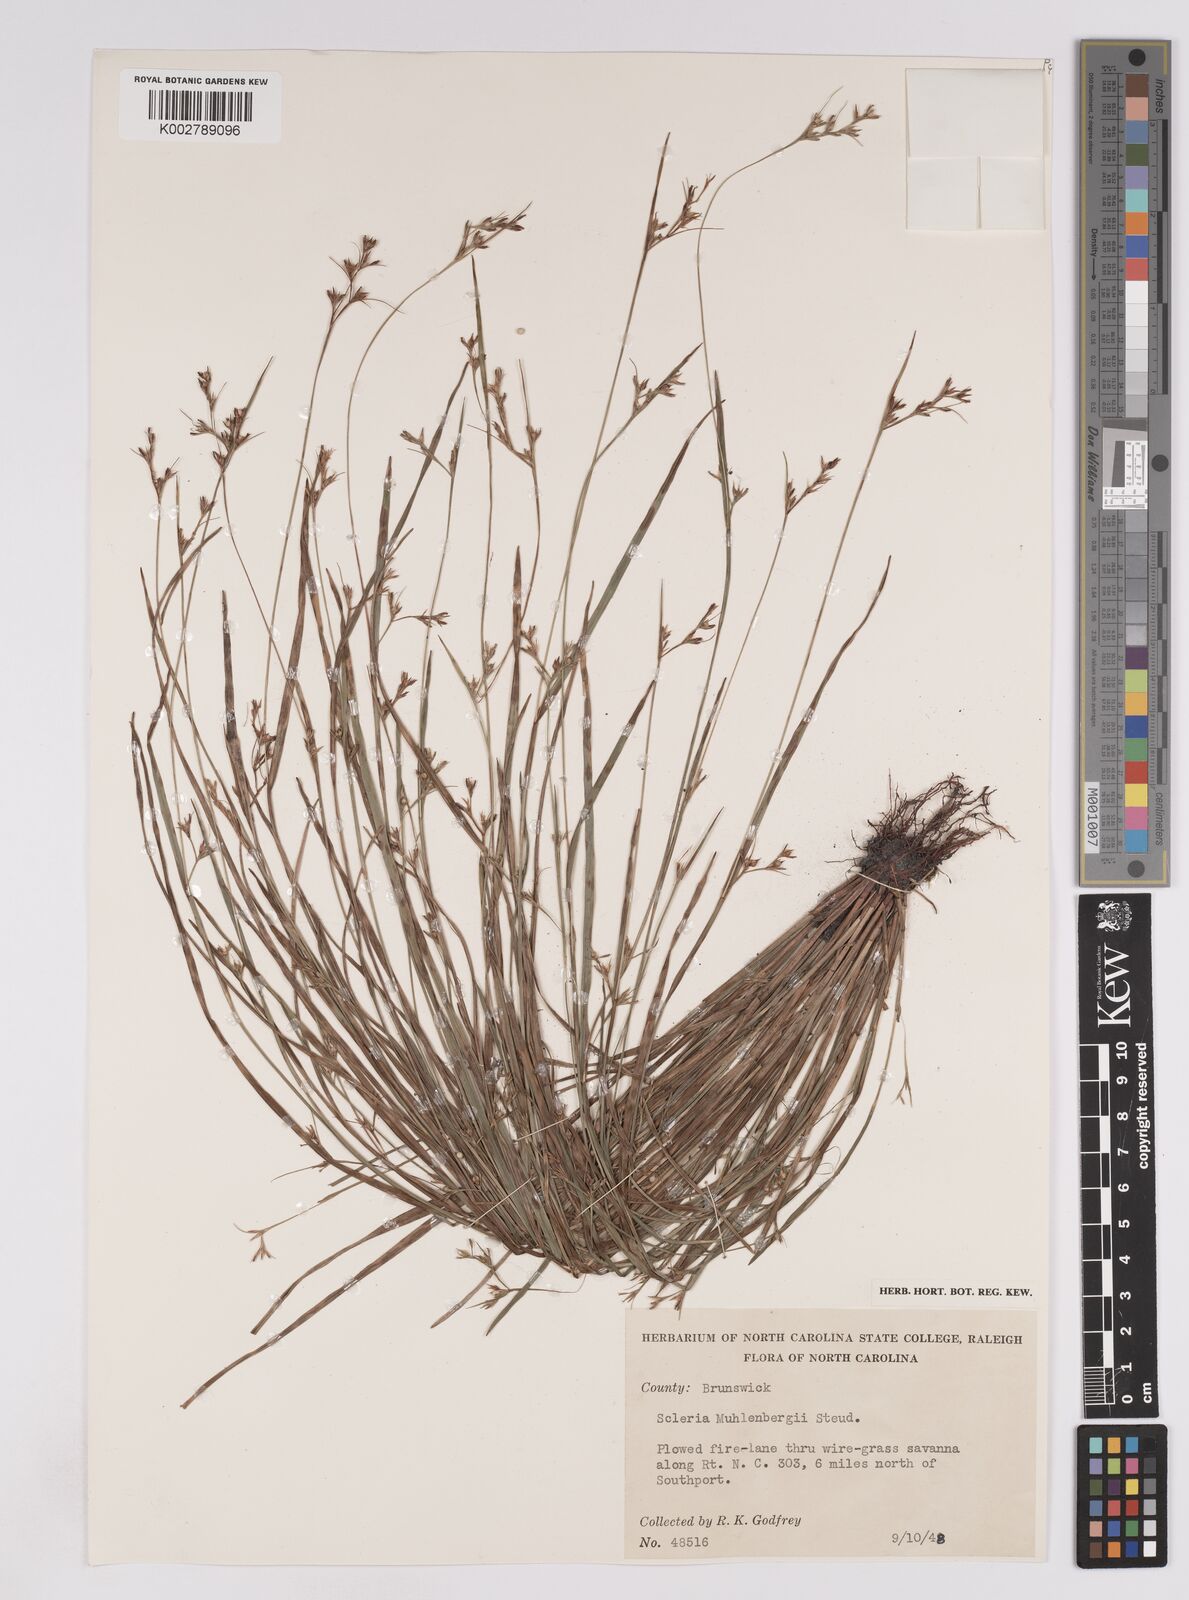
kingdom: Plantae
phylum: Tracheophyta
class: Liliopsida
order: Poales
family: Cyperaceae
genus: Scleria
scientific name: Scleria muehlenbergii
